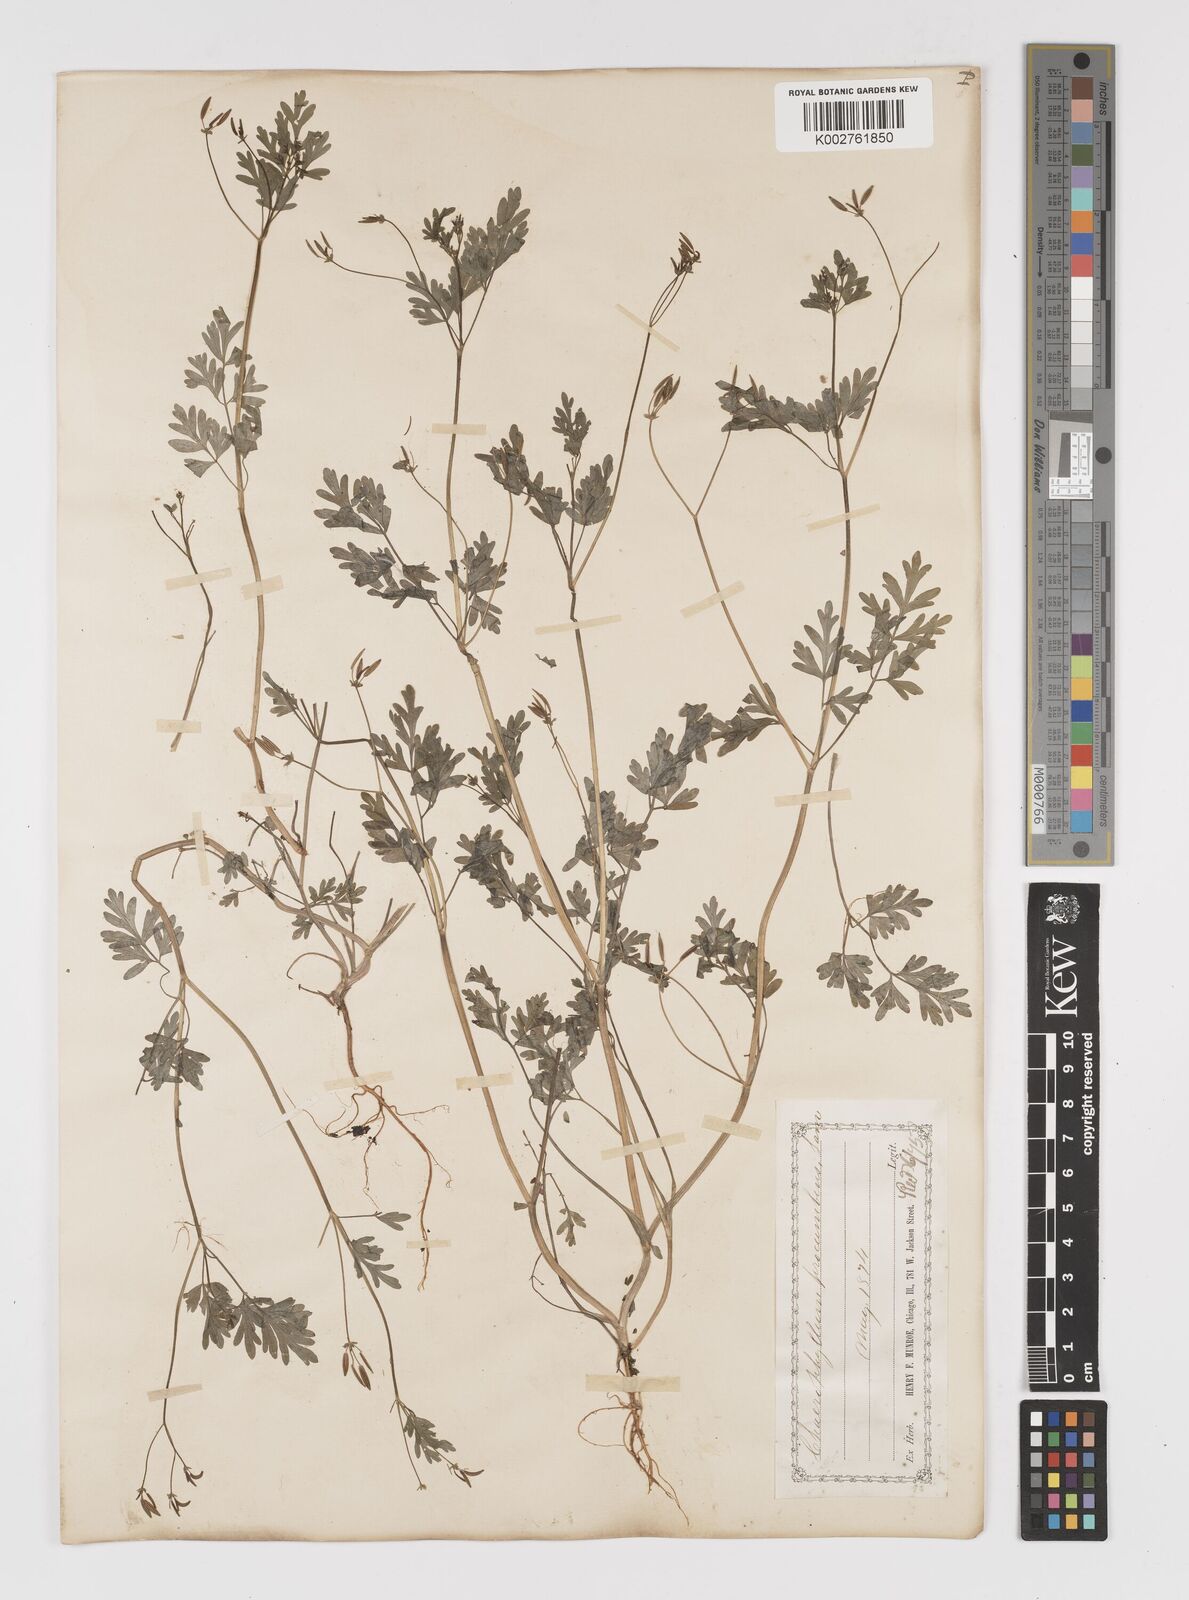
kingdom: Plantae
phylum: Tracheophyta
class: Magnoliopsida
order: Apiales
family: Apiaceae
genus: Chaerophyllum
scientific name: Chaerophyllum procumbens
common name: Spreading chervil
